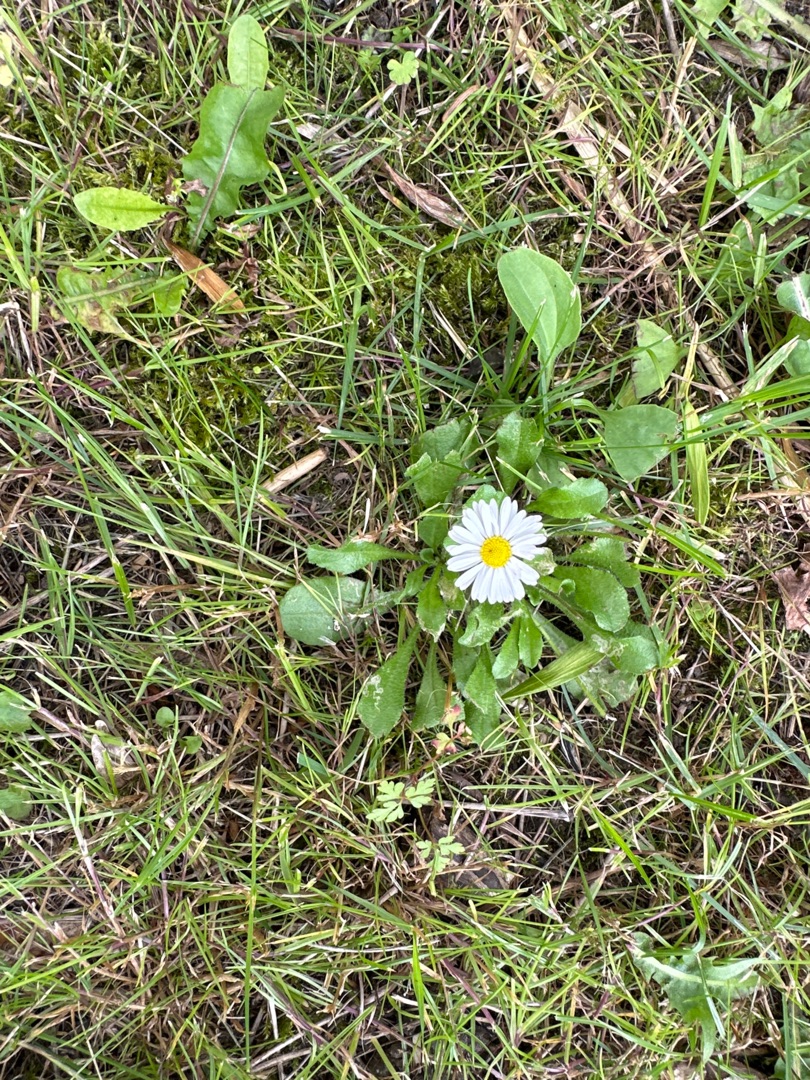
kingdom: Plantae
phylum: Tracheophyta
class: Magnoliopsida
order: Asterales
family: Asteraceae
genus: Bellis
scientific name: Bellis perennis
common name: Tusindfryd
